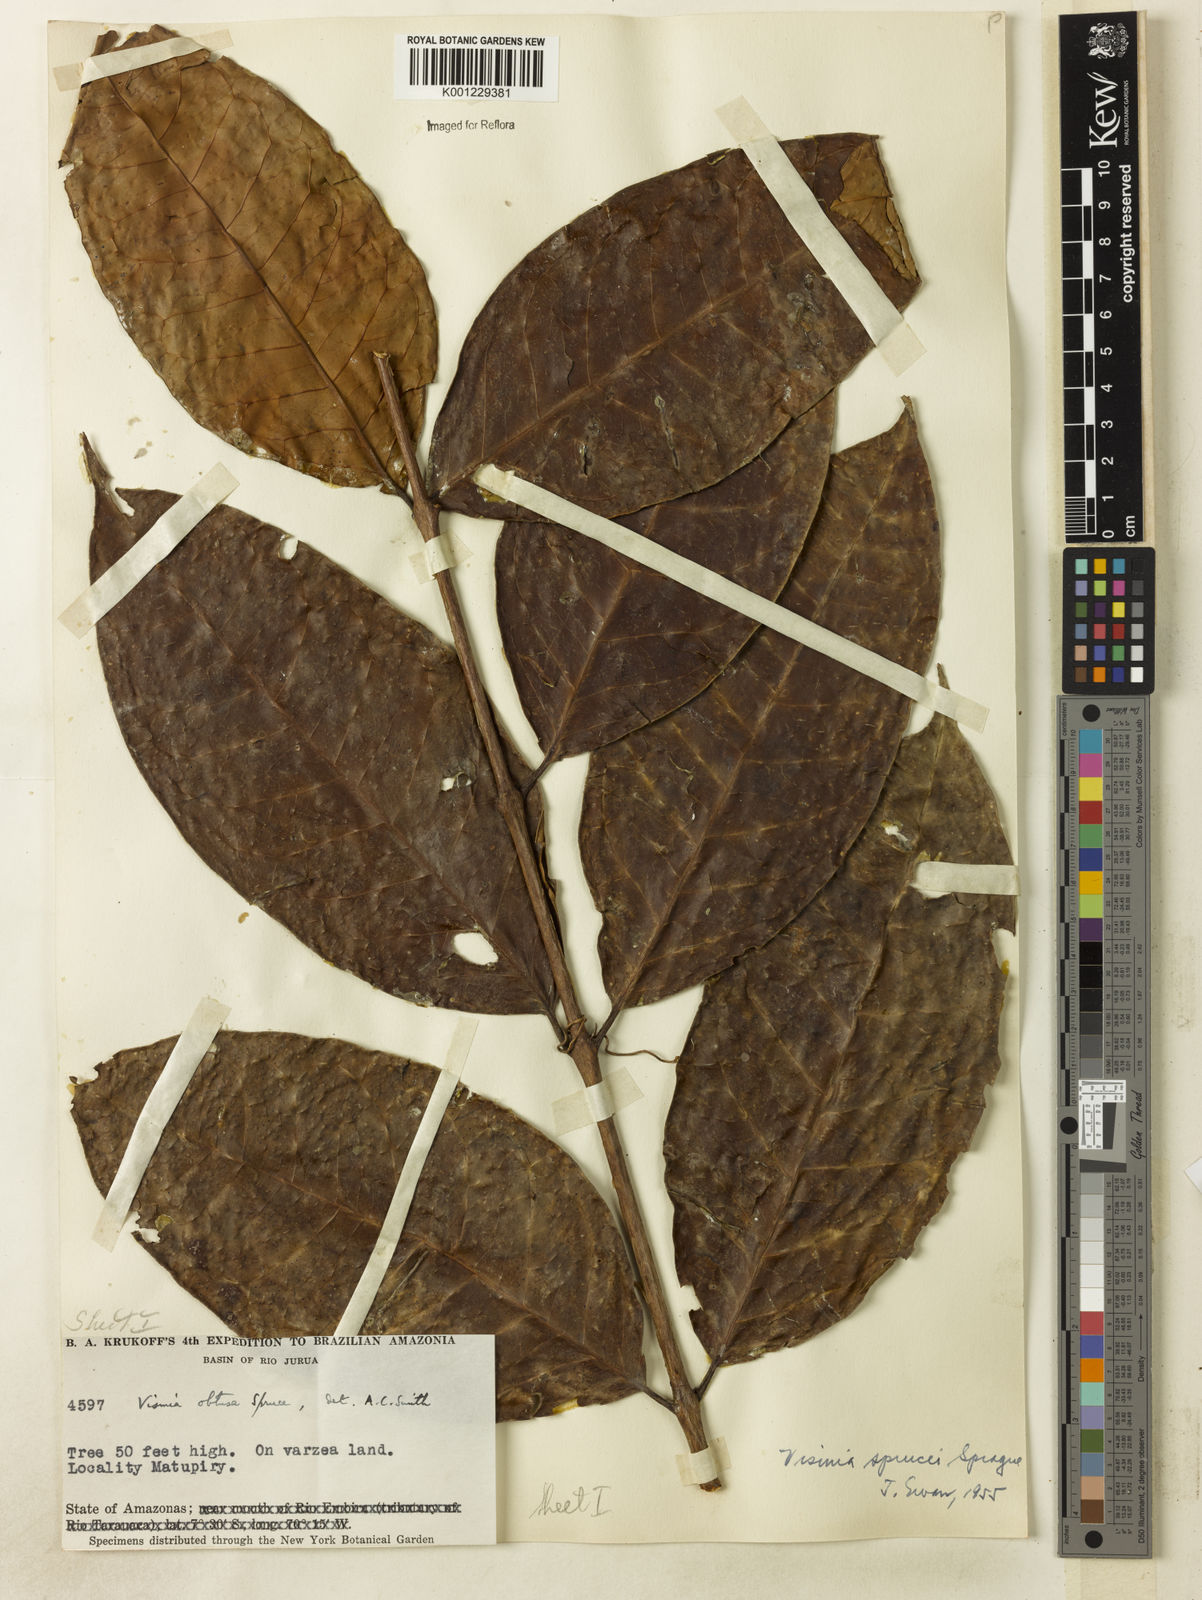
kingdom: Plantae
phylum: Tracheophyta
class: Magnoliopsida
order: Malpighiales
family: Hypericaceae
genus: Vismia
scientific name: Vismia sprucei
